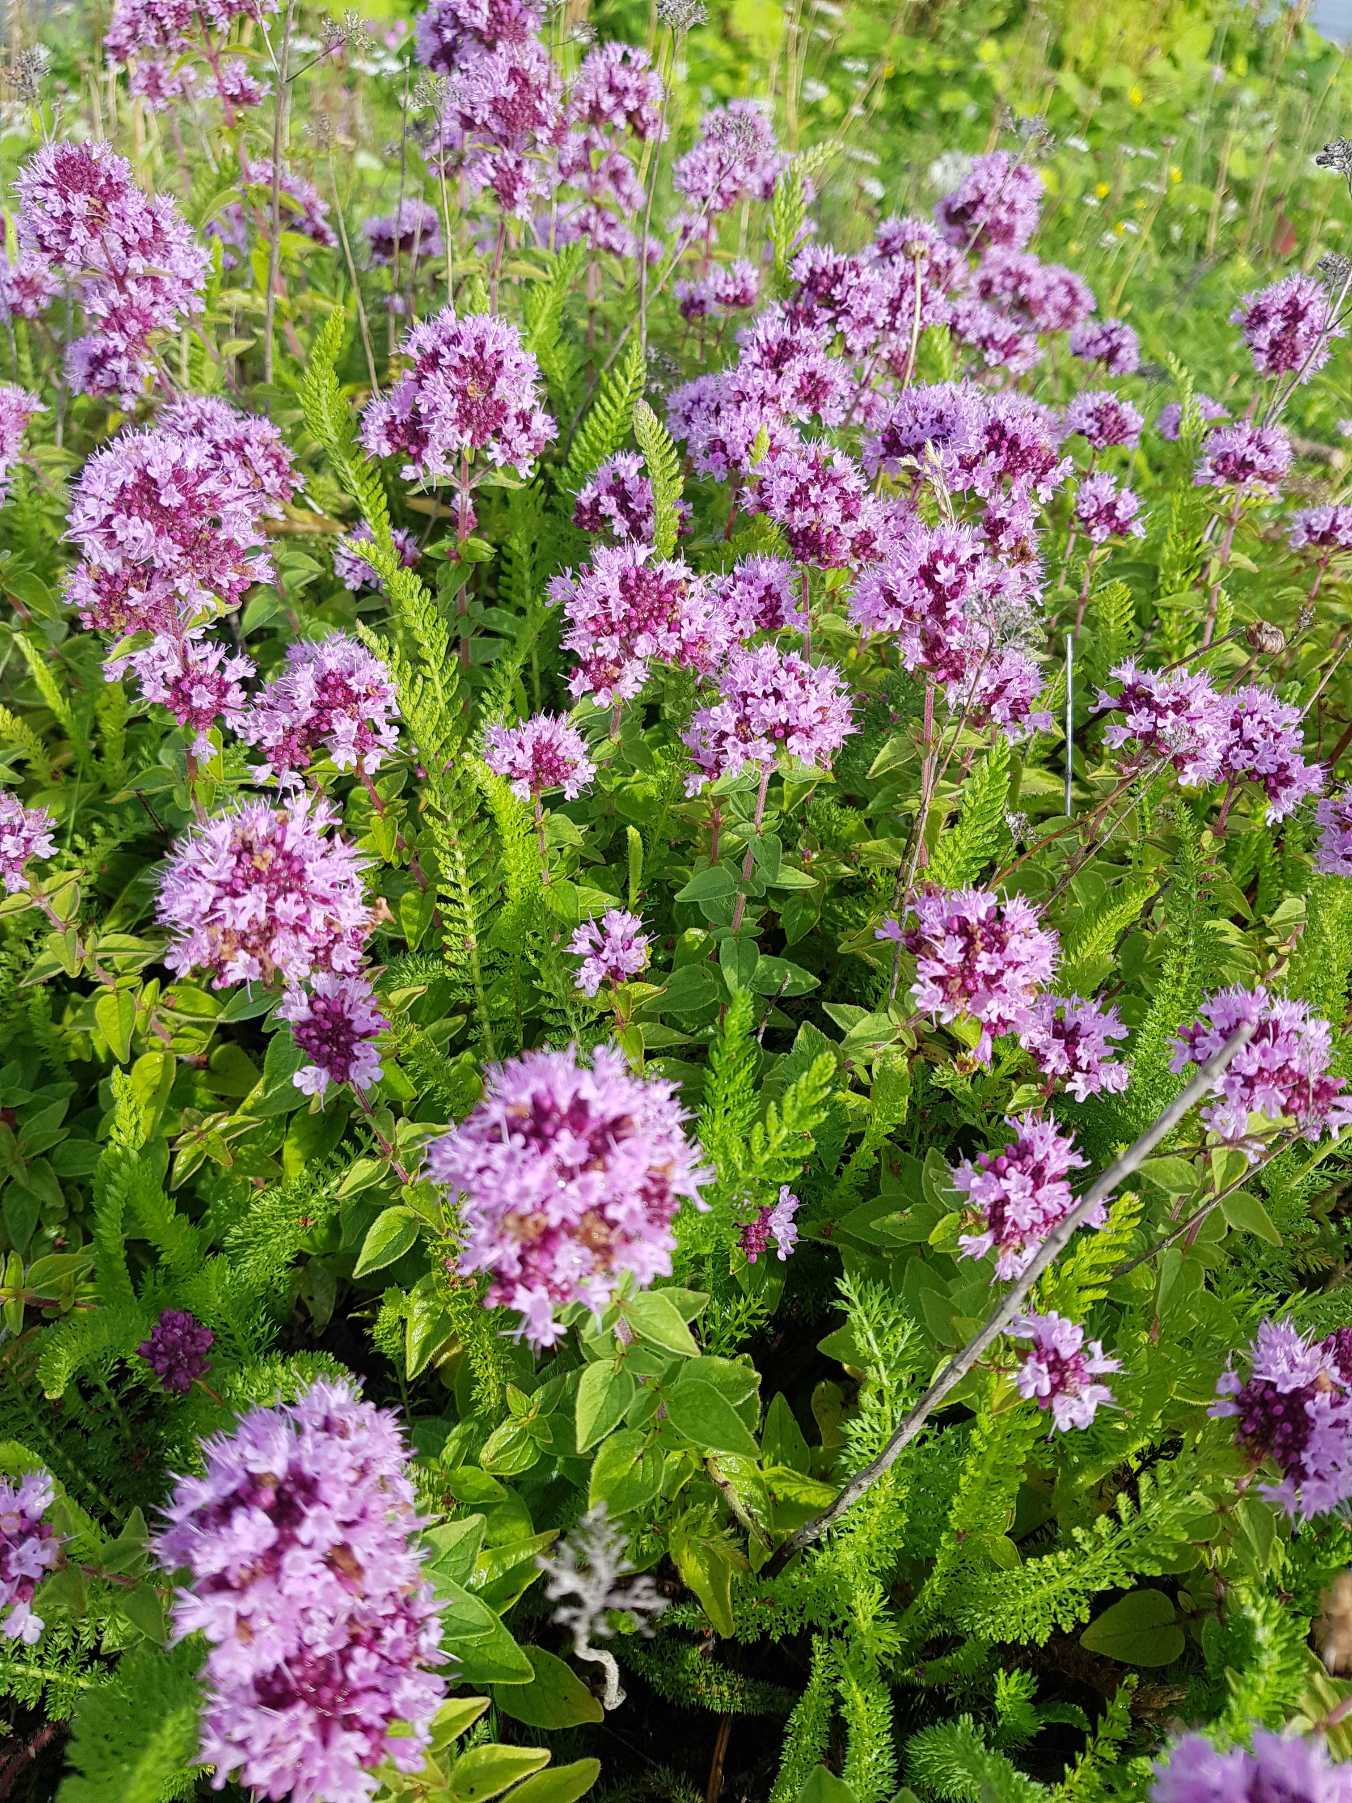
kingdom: Plantae
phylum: Tracheophyta
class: Magnoliopsida
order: Lamiales
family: Lamiaceae
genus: Origanum
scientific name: Origanum vulgare
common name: Merian
